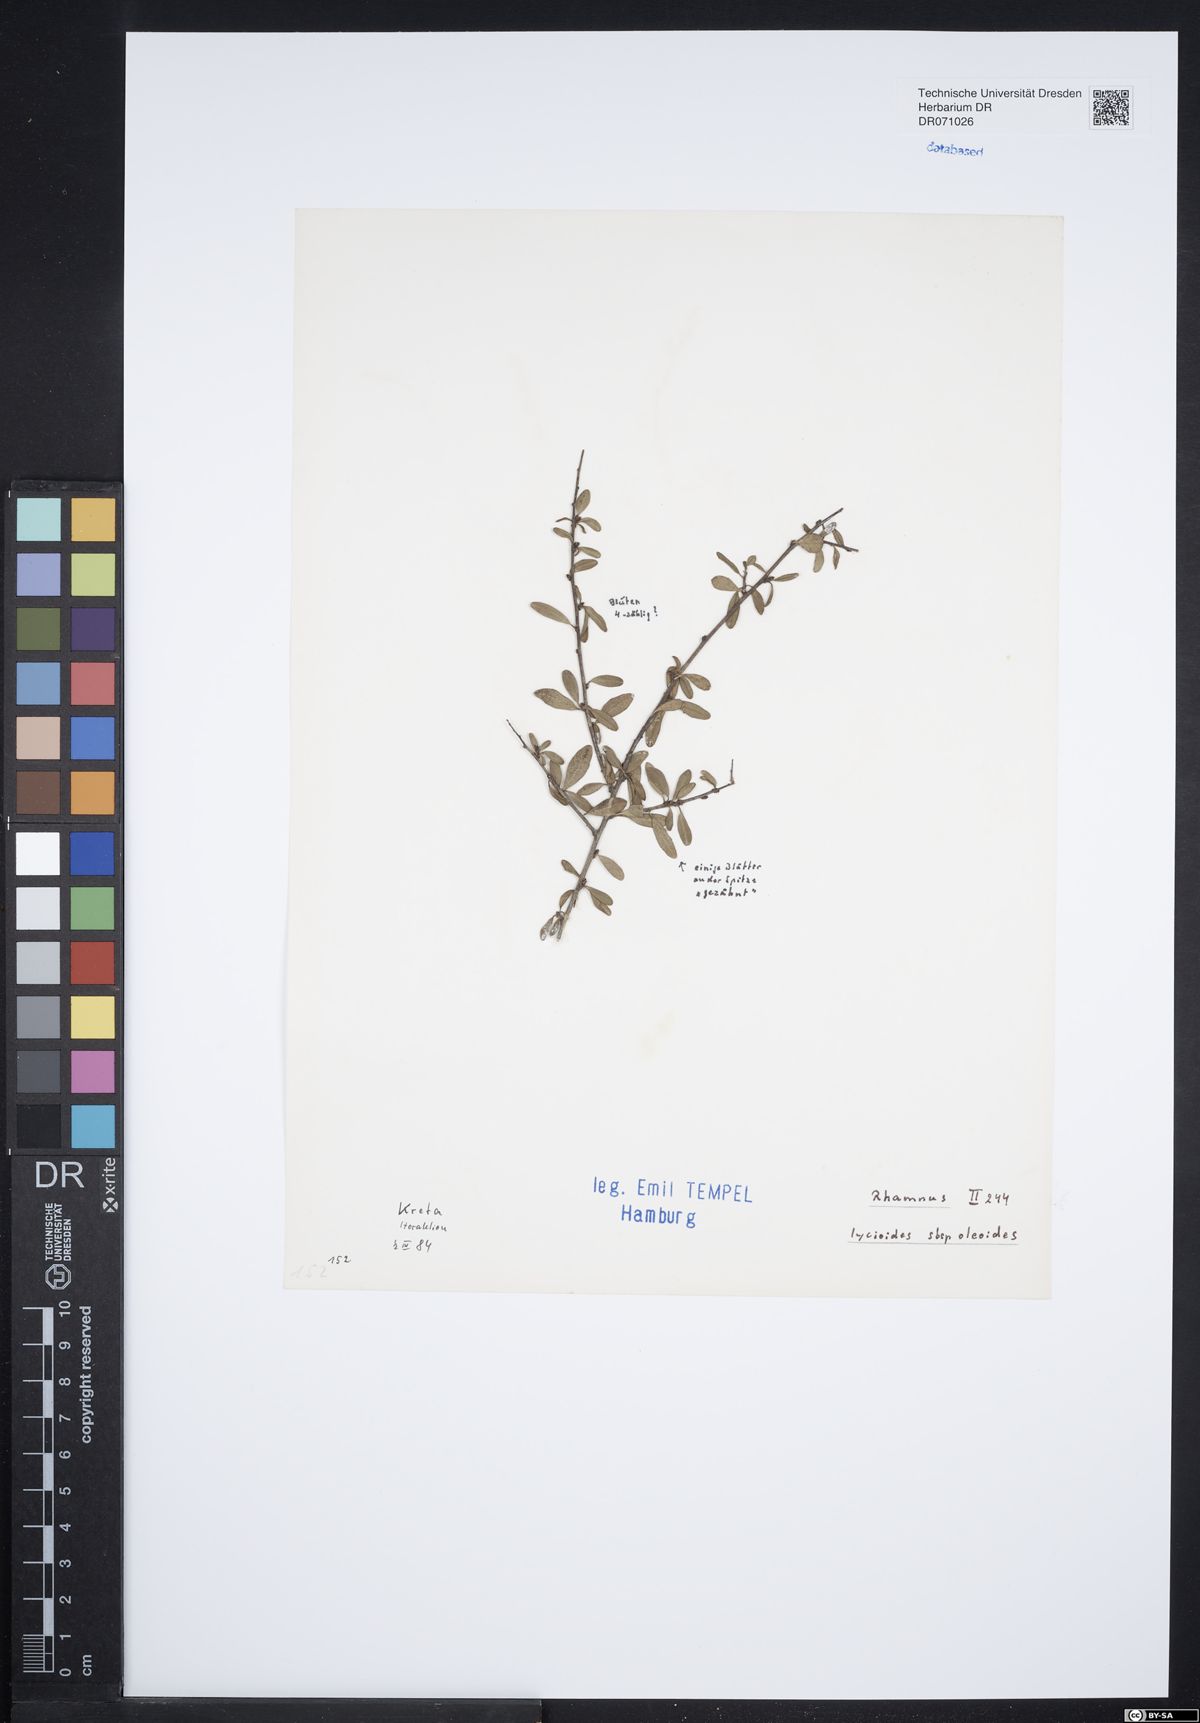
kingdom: Plantae
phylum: Tracheophyta
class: Magnoliopsida
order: Rosales
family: Rhamnaceae
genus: Rhamnus
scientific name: Rhamnus oleoides
